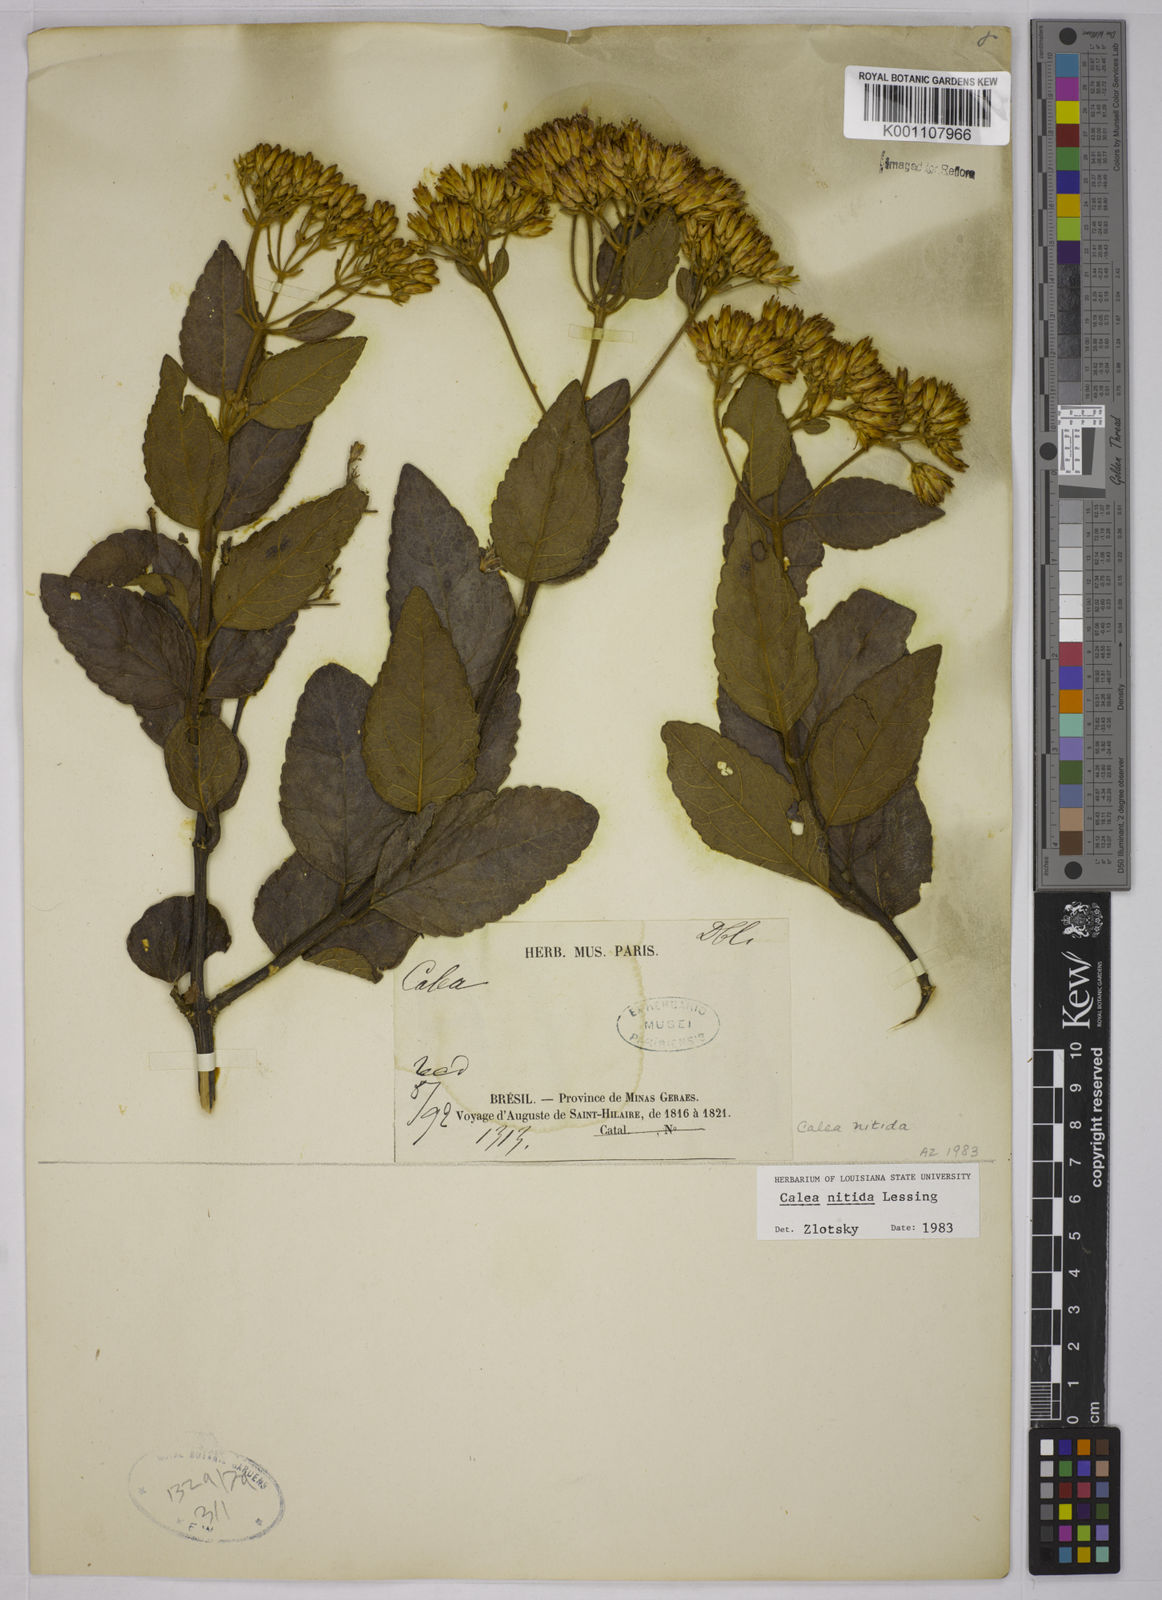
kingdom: Plantae
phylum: Tracheophyta
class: Magnoliopsida
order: Asterales
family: Asteraceae
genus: Calea
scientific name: Calea nitida
